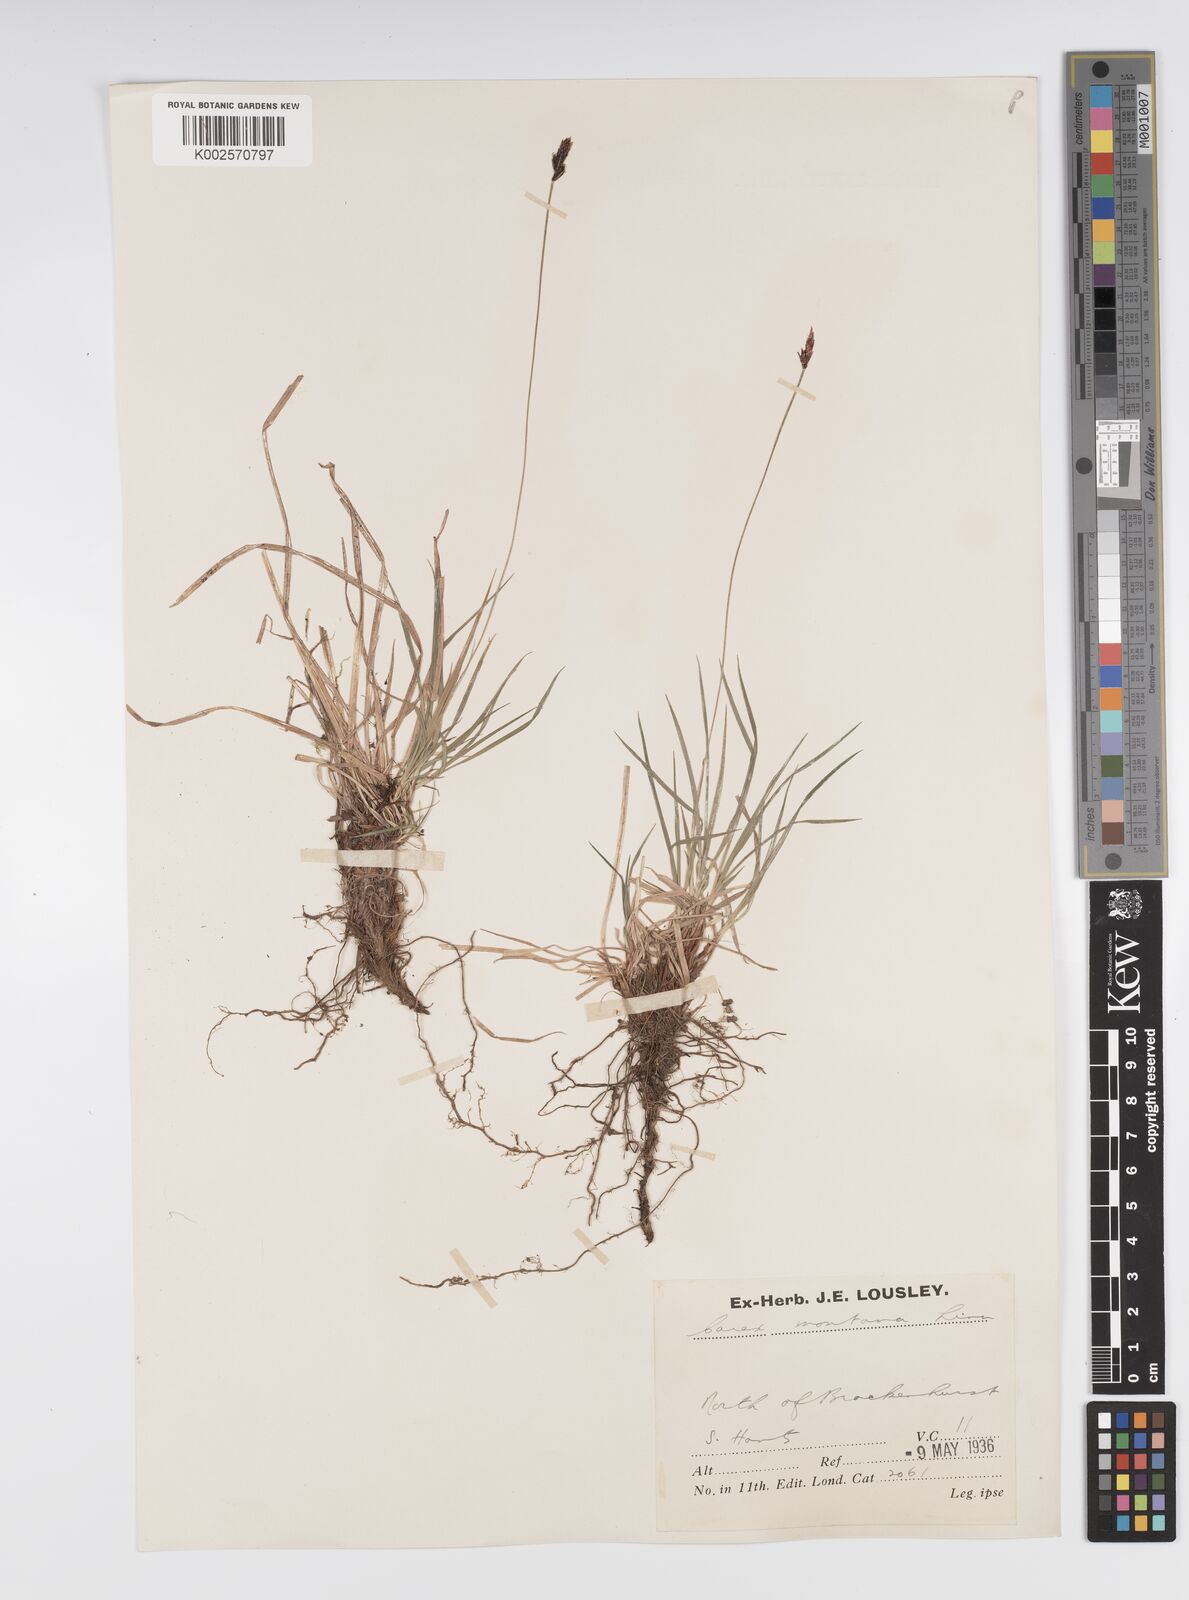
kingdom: Plantae
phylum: Tracheophyta
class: Liliopsida
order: Poales
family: Cyperaceae
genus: Carex
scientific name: Carex montana
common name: Soft-leaved sedge
